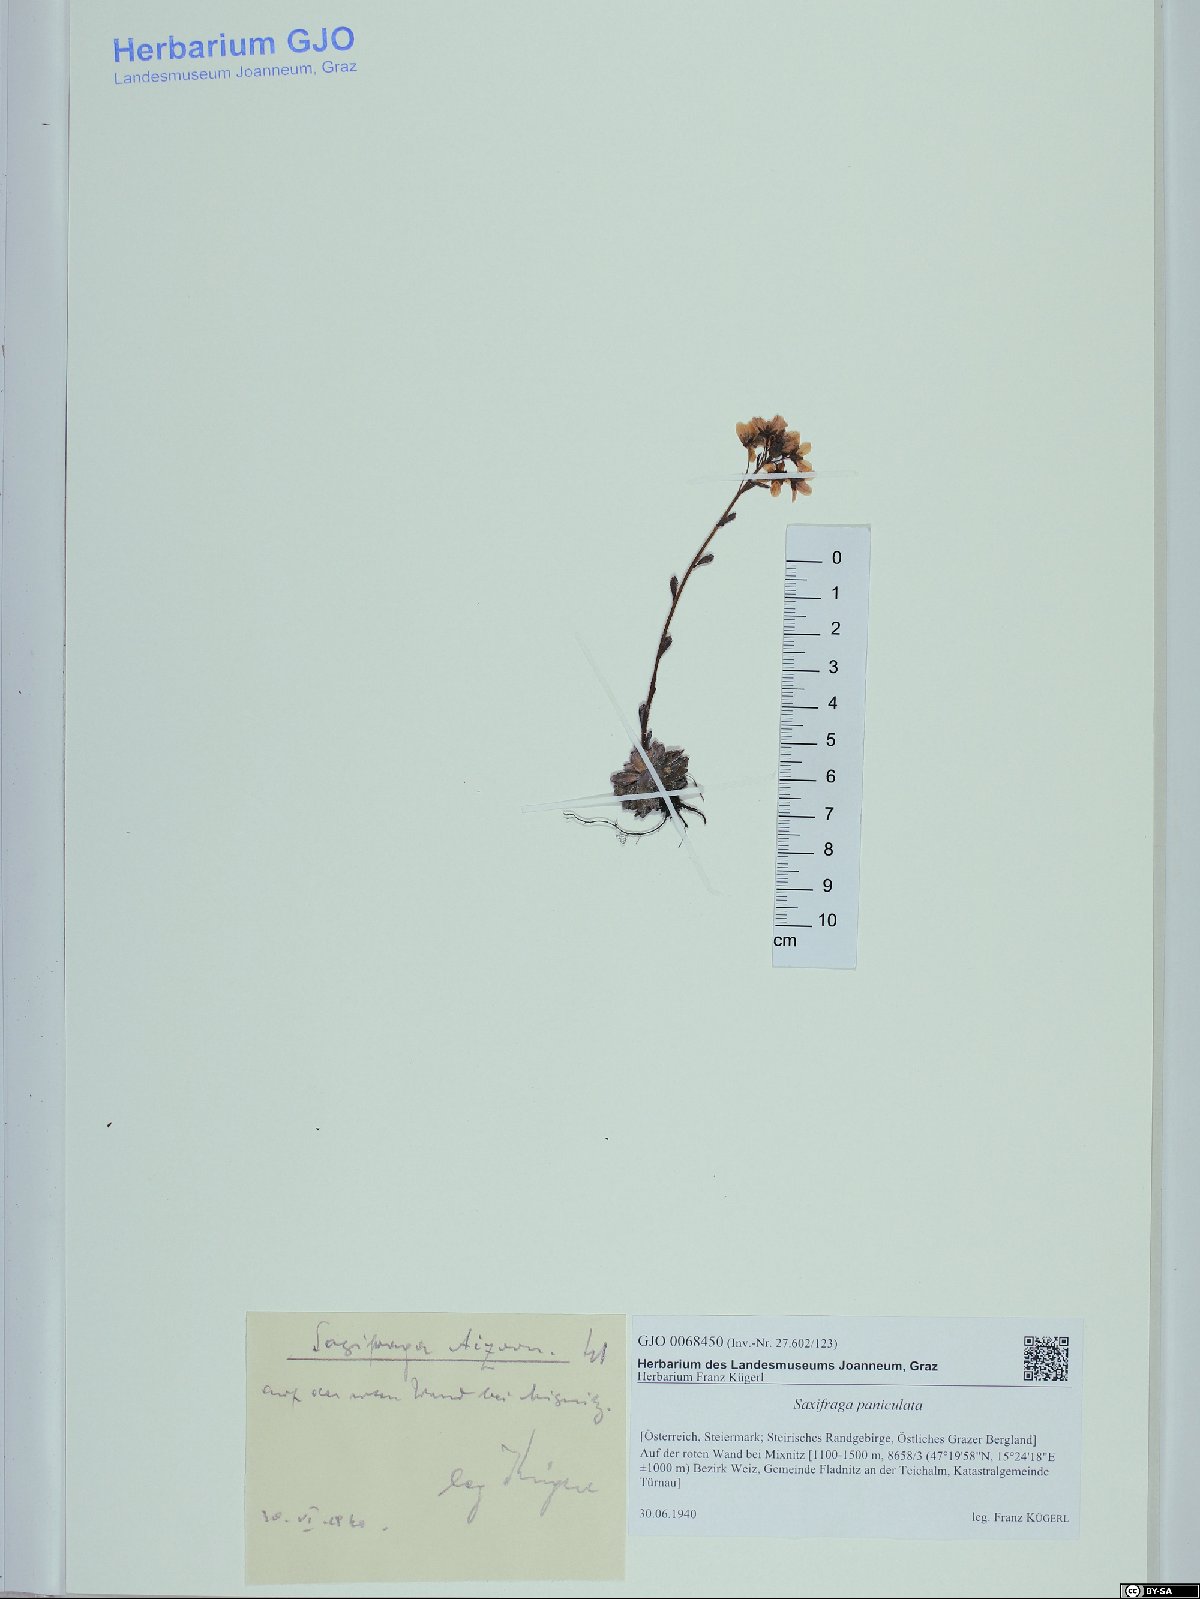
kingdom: Plantae
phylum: Tracheophyta
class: Magnoliopsida
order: Saxifragales
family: Saxifragaceae
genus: Saxifraga
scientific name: Saxifraga paniculata
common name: Livelong saxifrage
